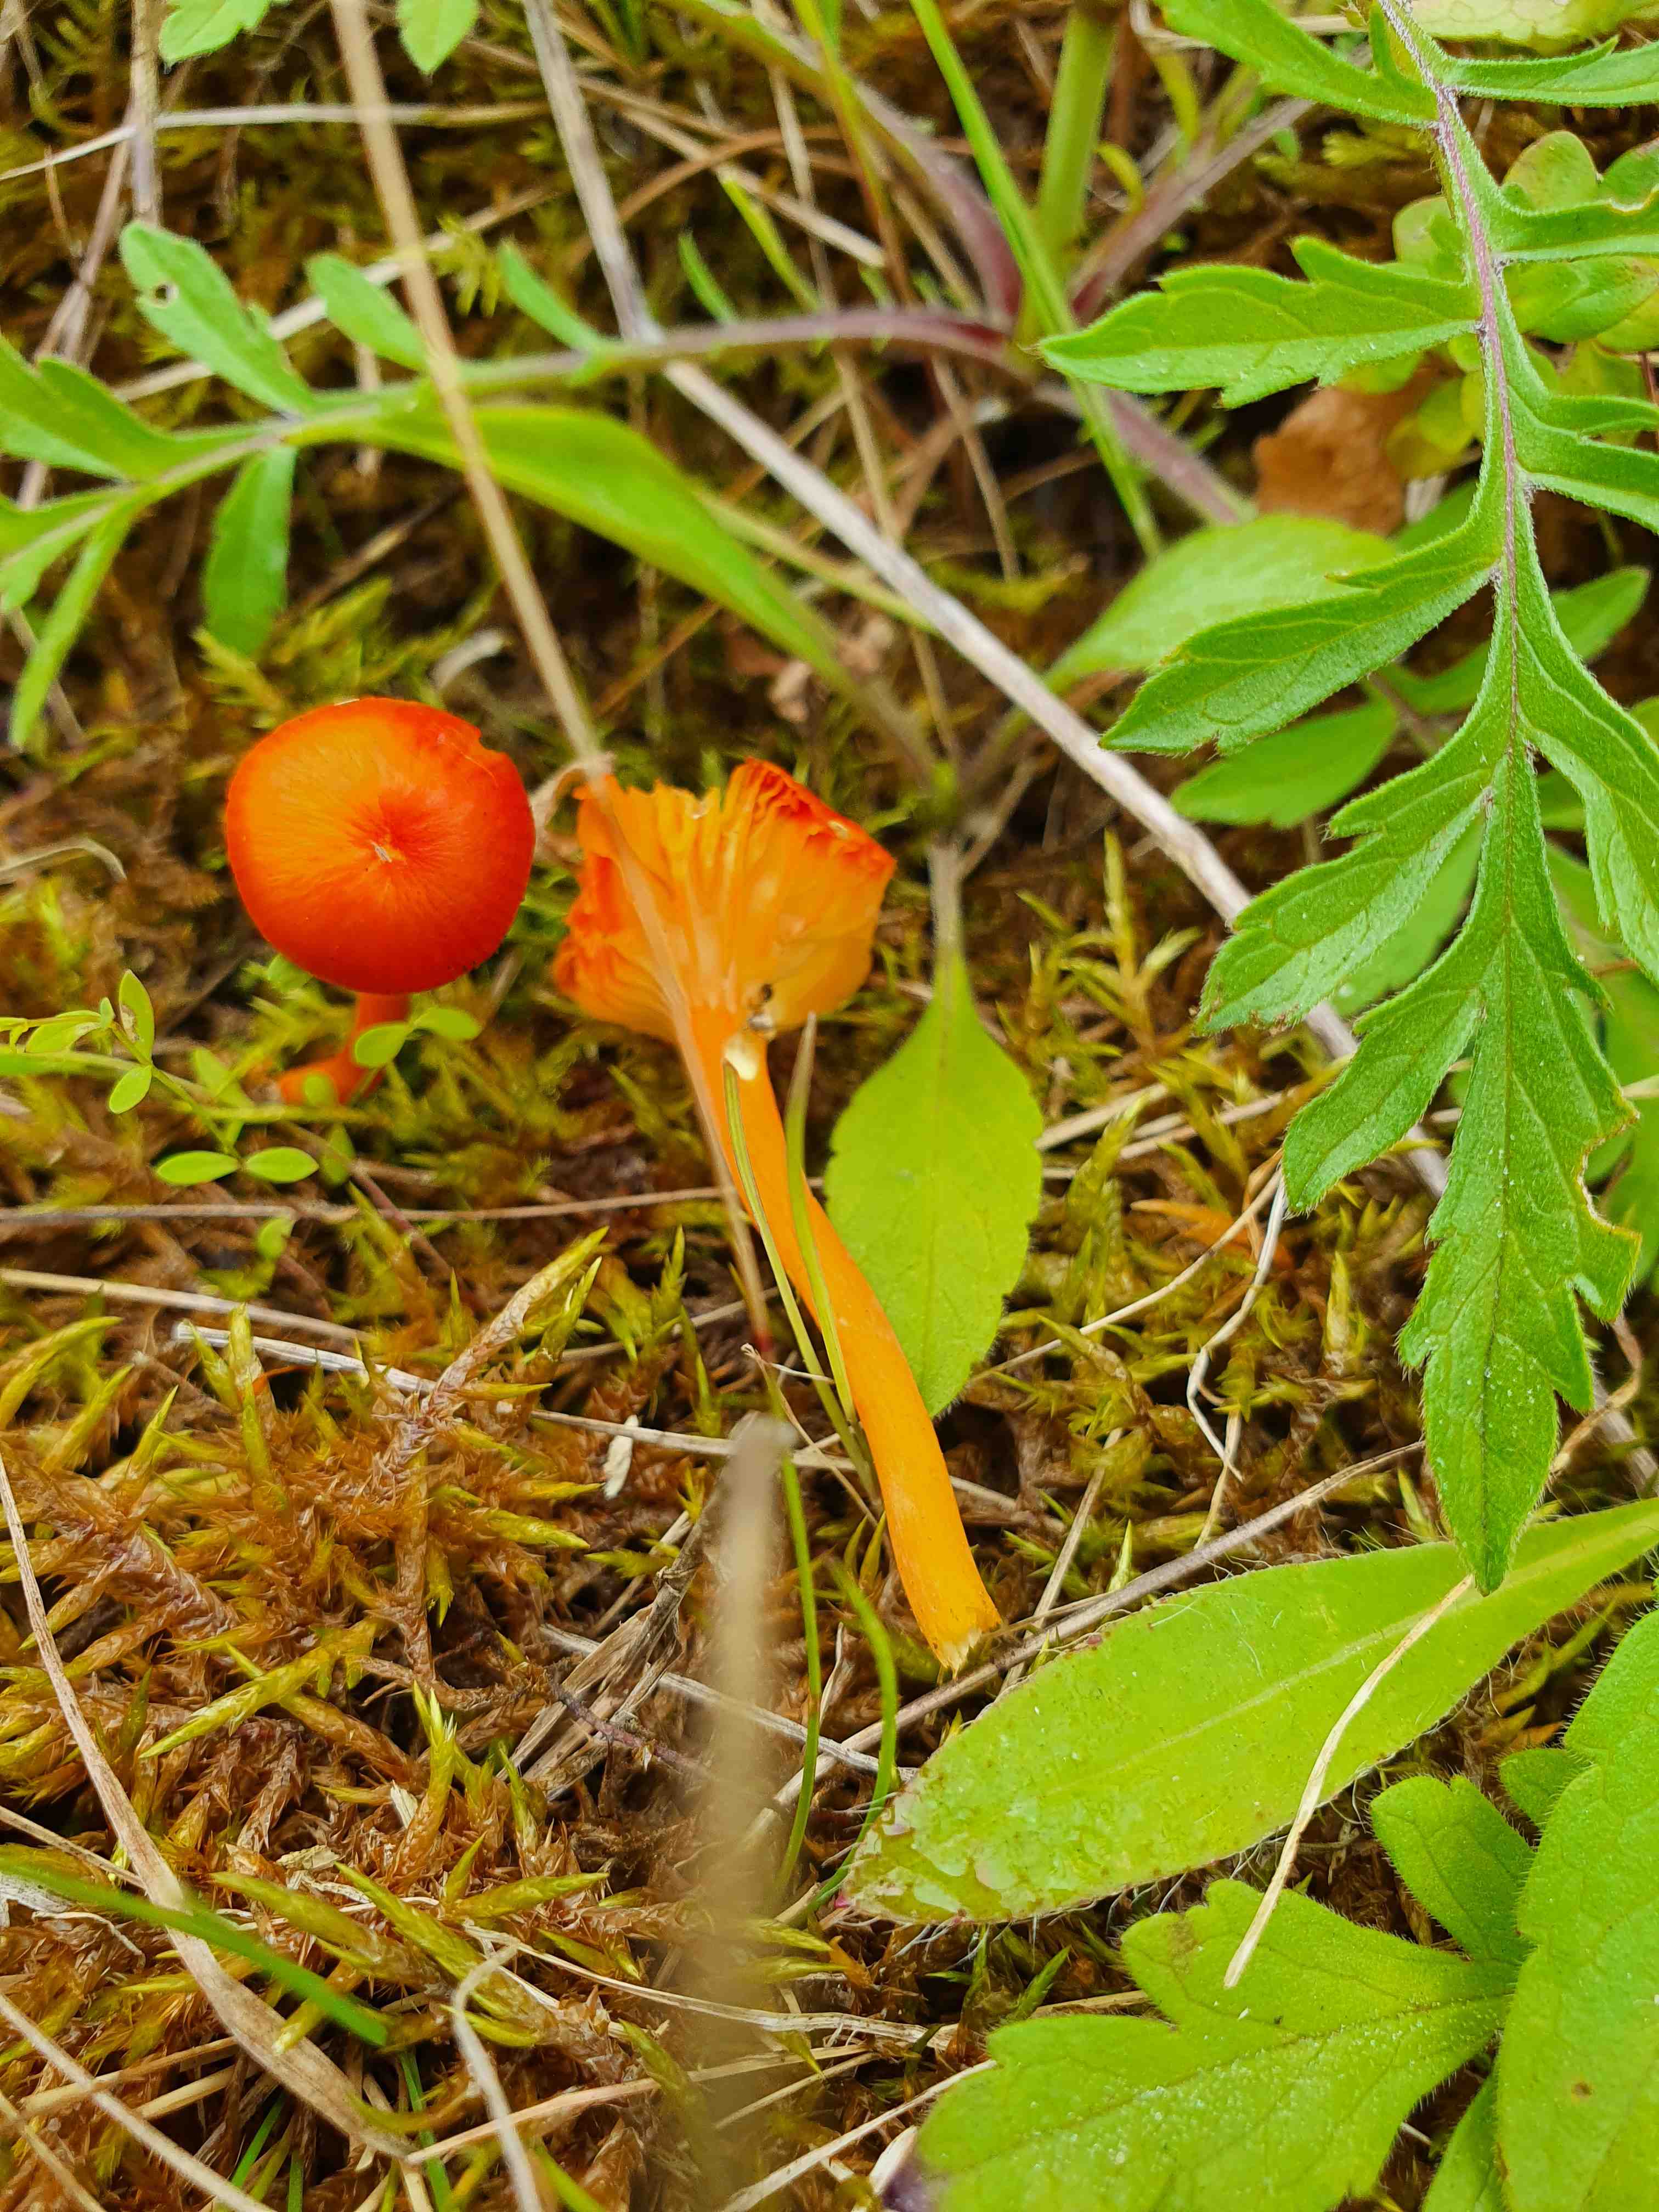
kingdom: Fungi
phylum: Basidiomycota
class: Agaricomycetes
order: Agaricales
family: Hygrophoraceae
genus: Hygrocybe
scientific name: Hygrocybe calciphila
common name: kalk-vokshat
